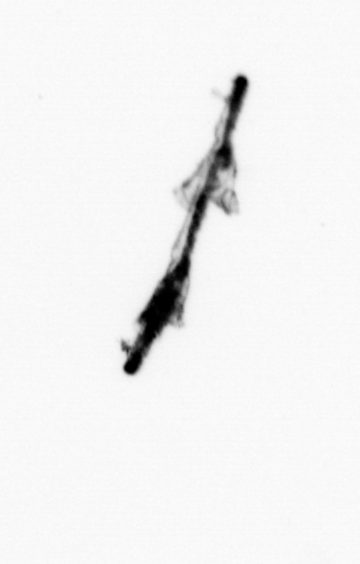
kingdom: Animalia
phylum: Cnidaria
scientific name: Cnidaria
